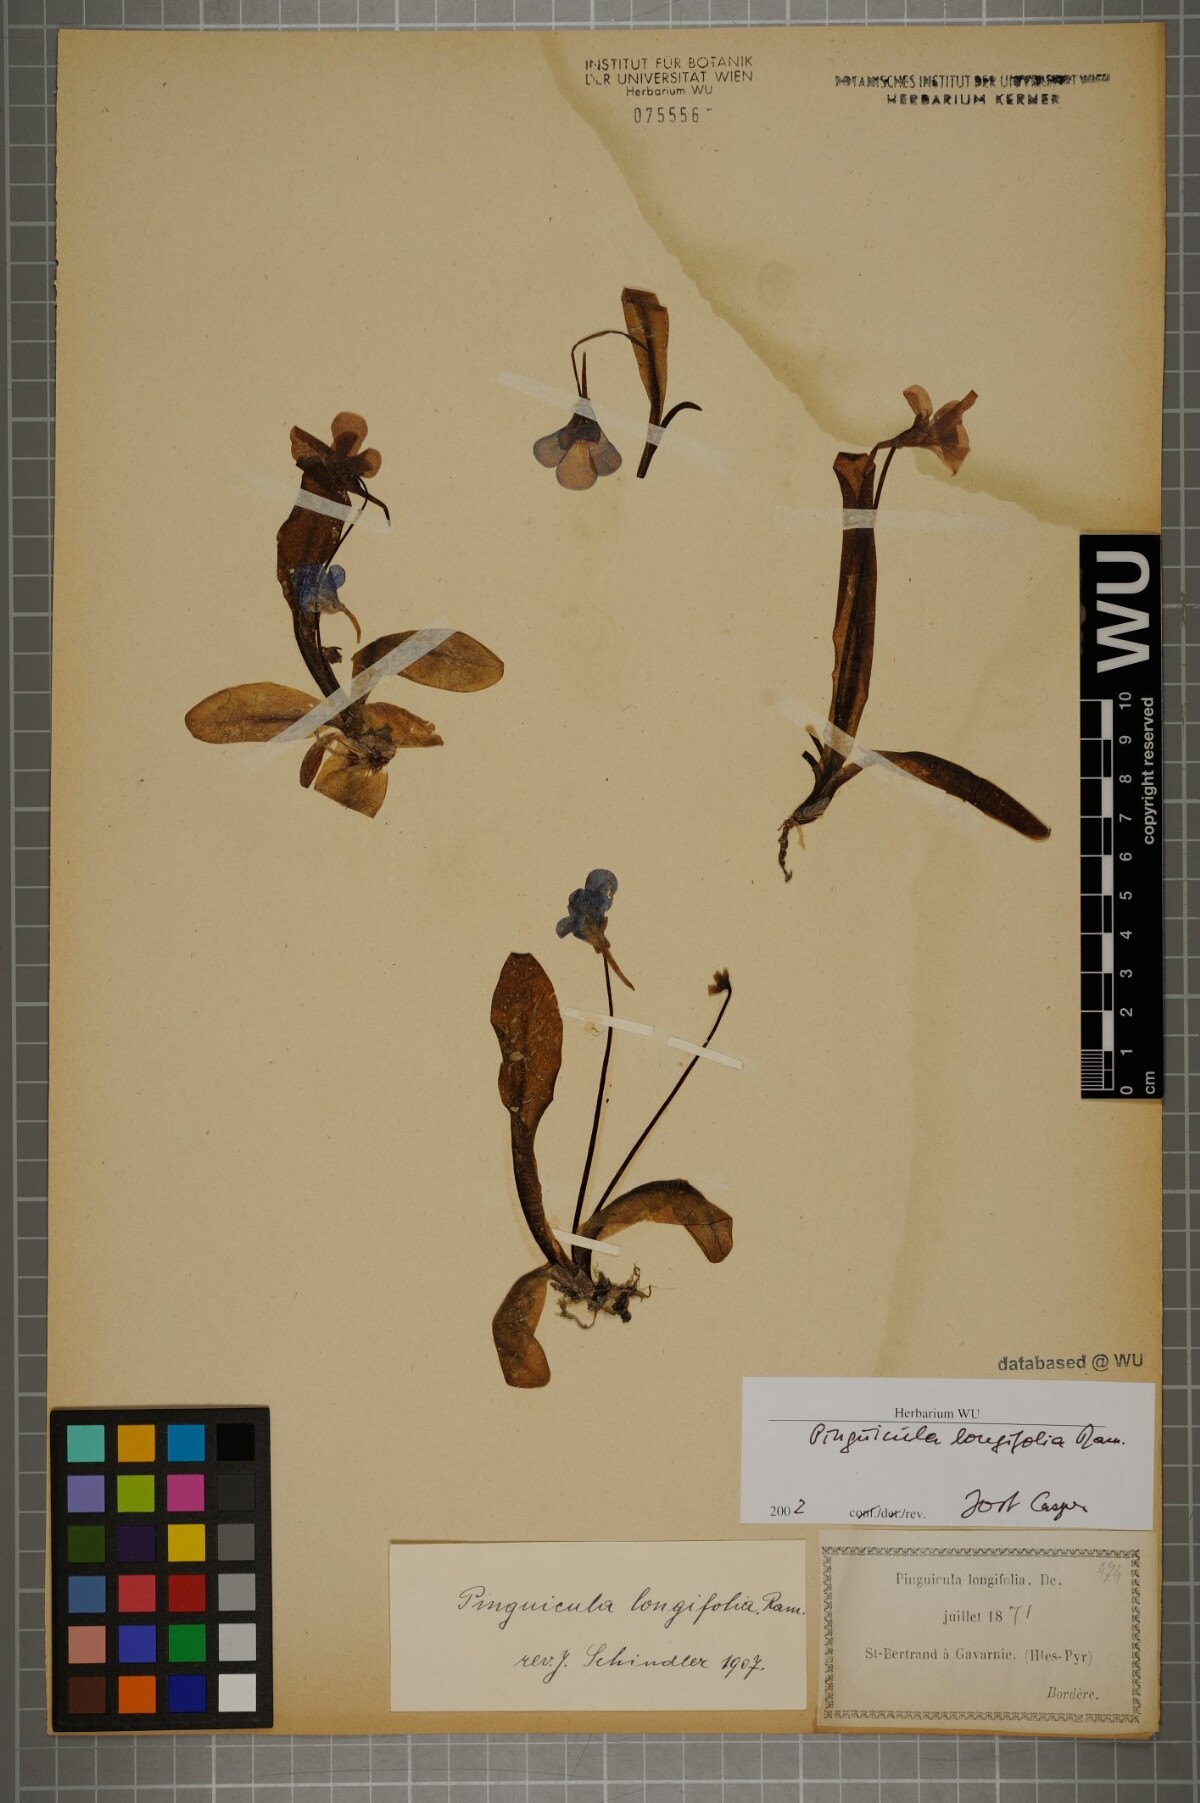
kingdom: Plantae
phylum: Tracheophyta
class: Magnoliopsida
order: Lamiales
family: Lentibulariaceae
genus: Pinguicula
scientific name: Pinguicula longifolia
